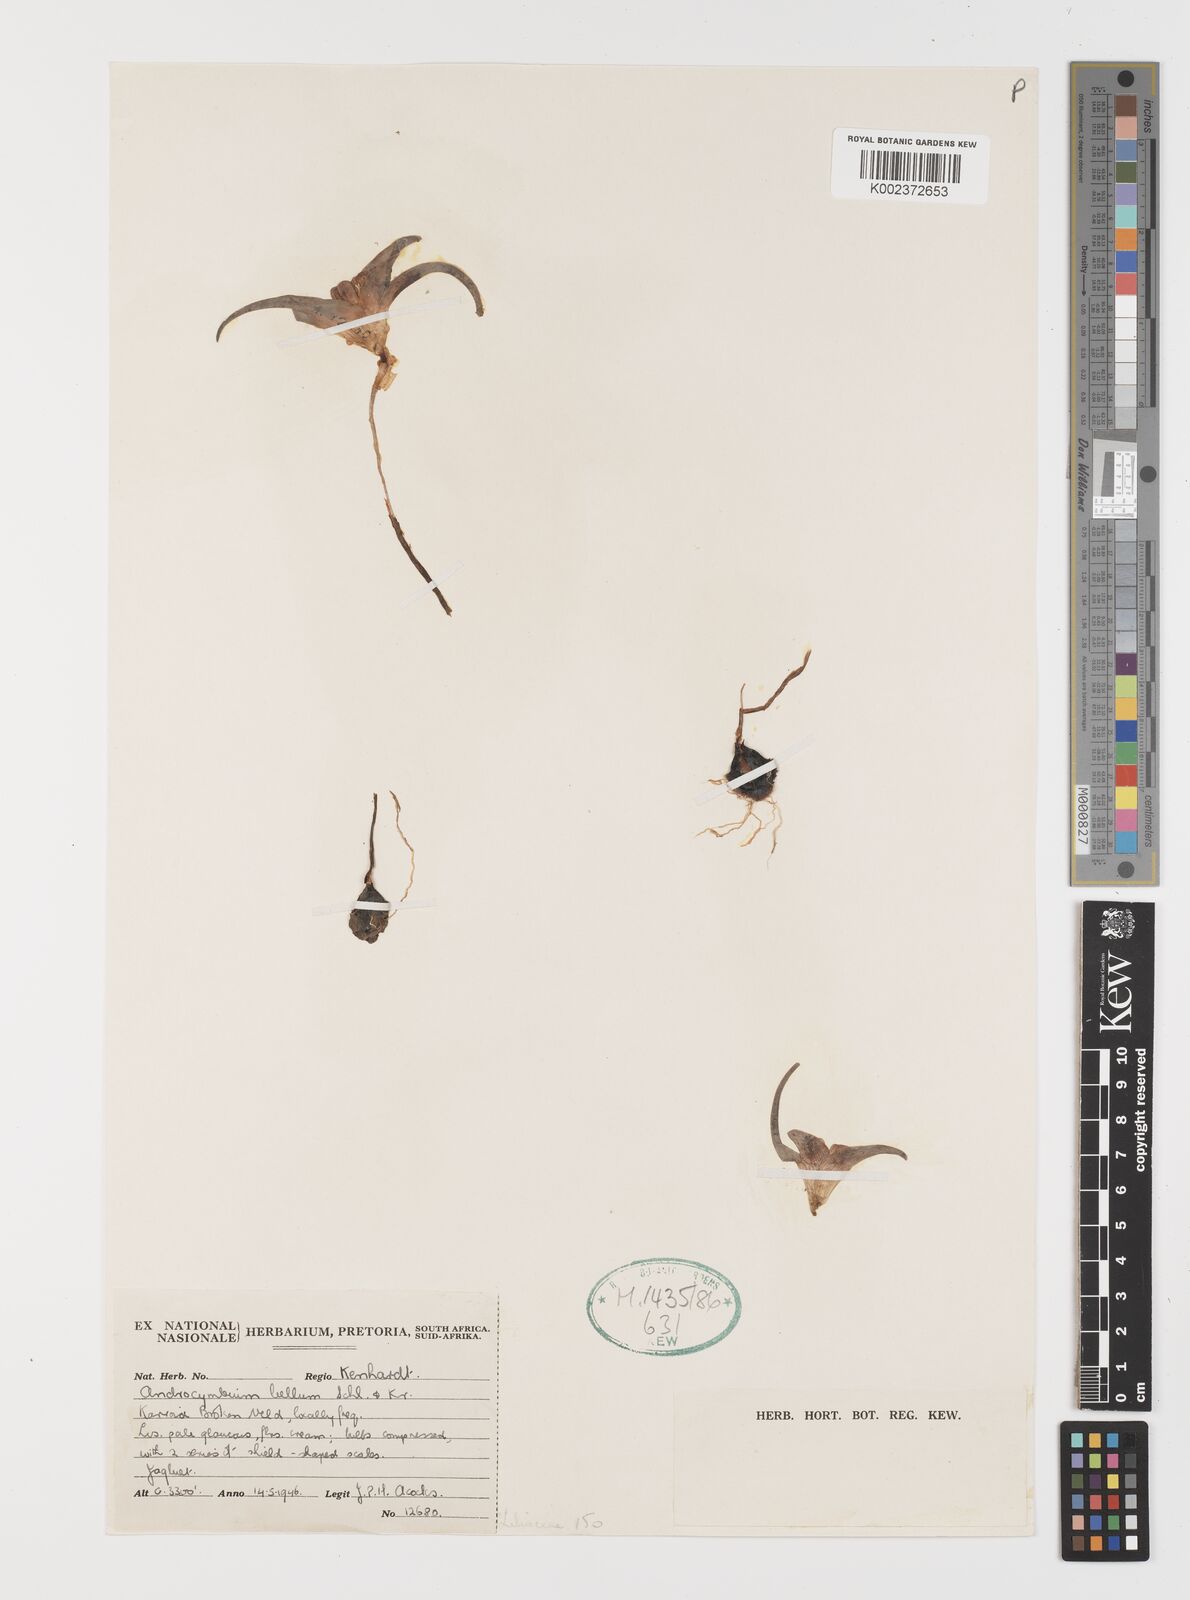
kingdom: Plantae
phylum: Tracheophyta
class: Liliopsida
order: Liliales
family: Colchicaceae
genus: Colchicum
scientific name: Colchicum bellum
